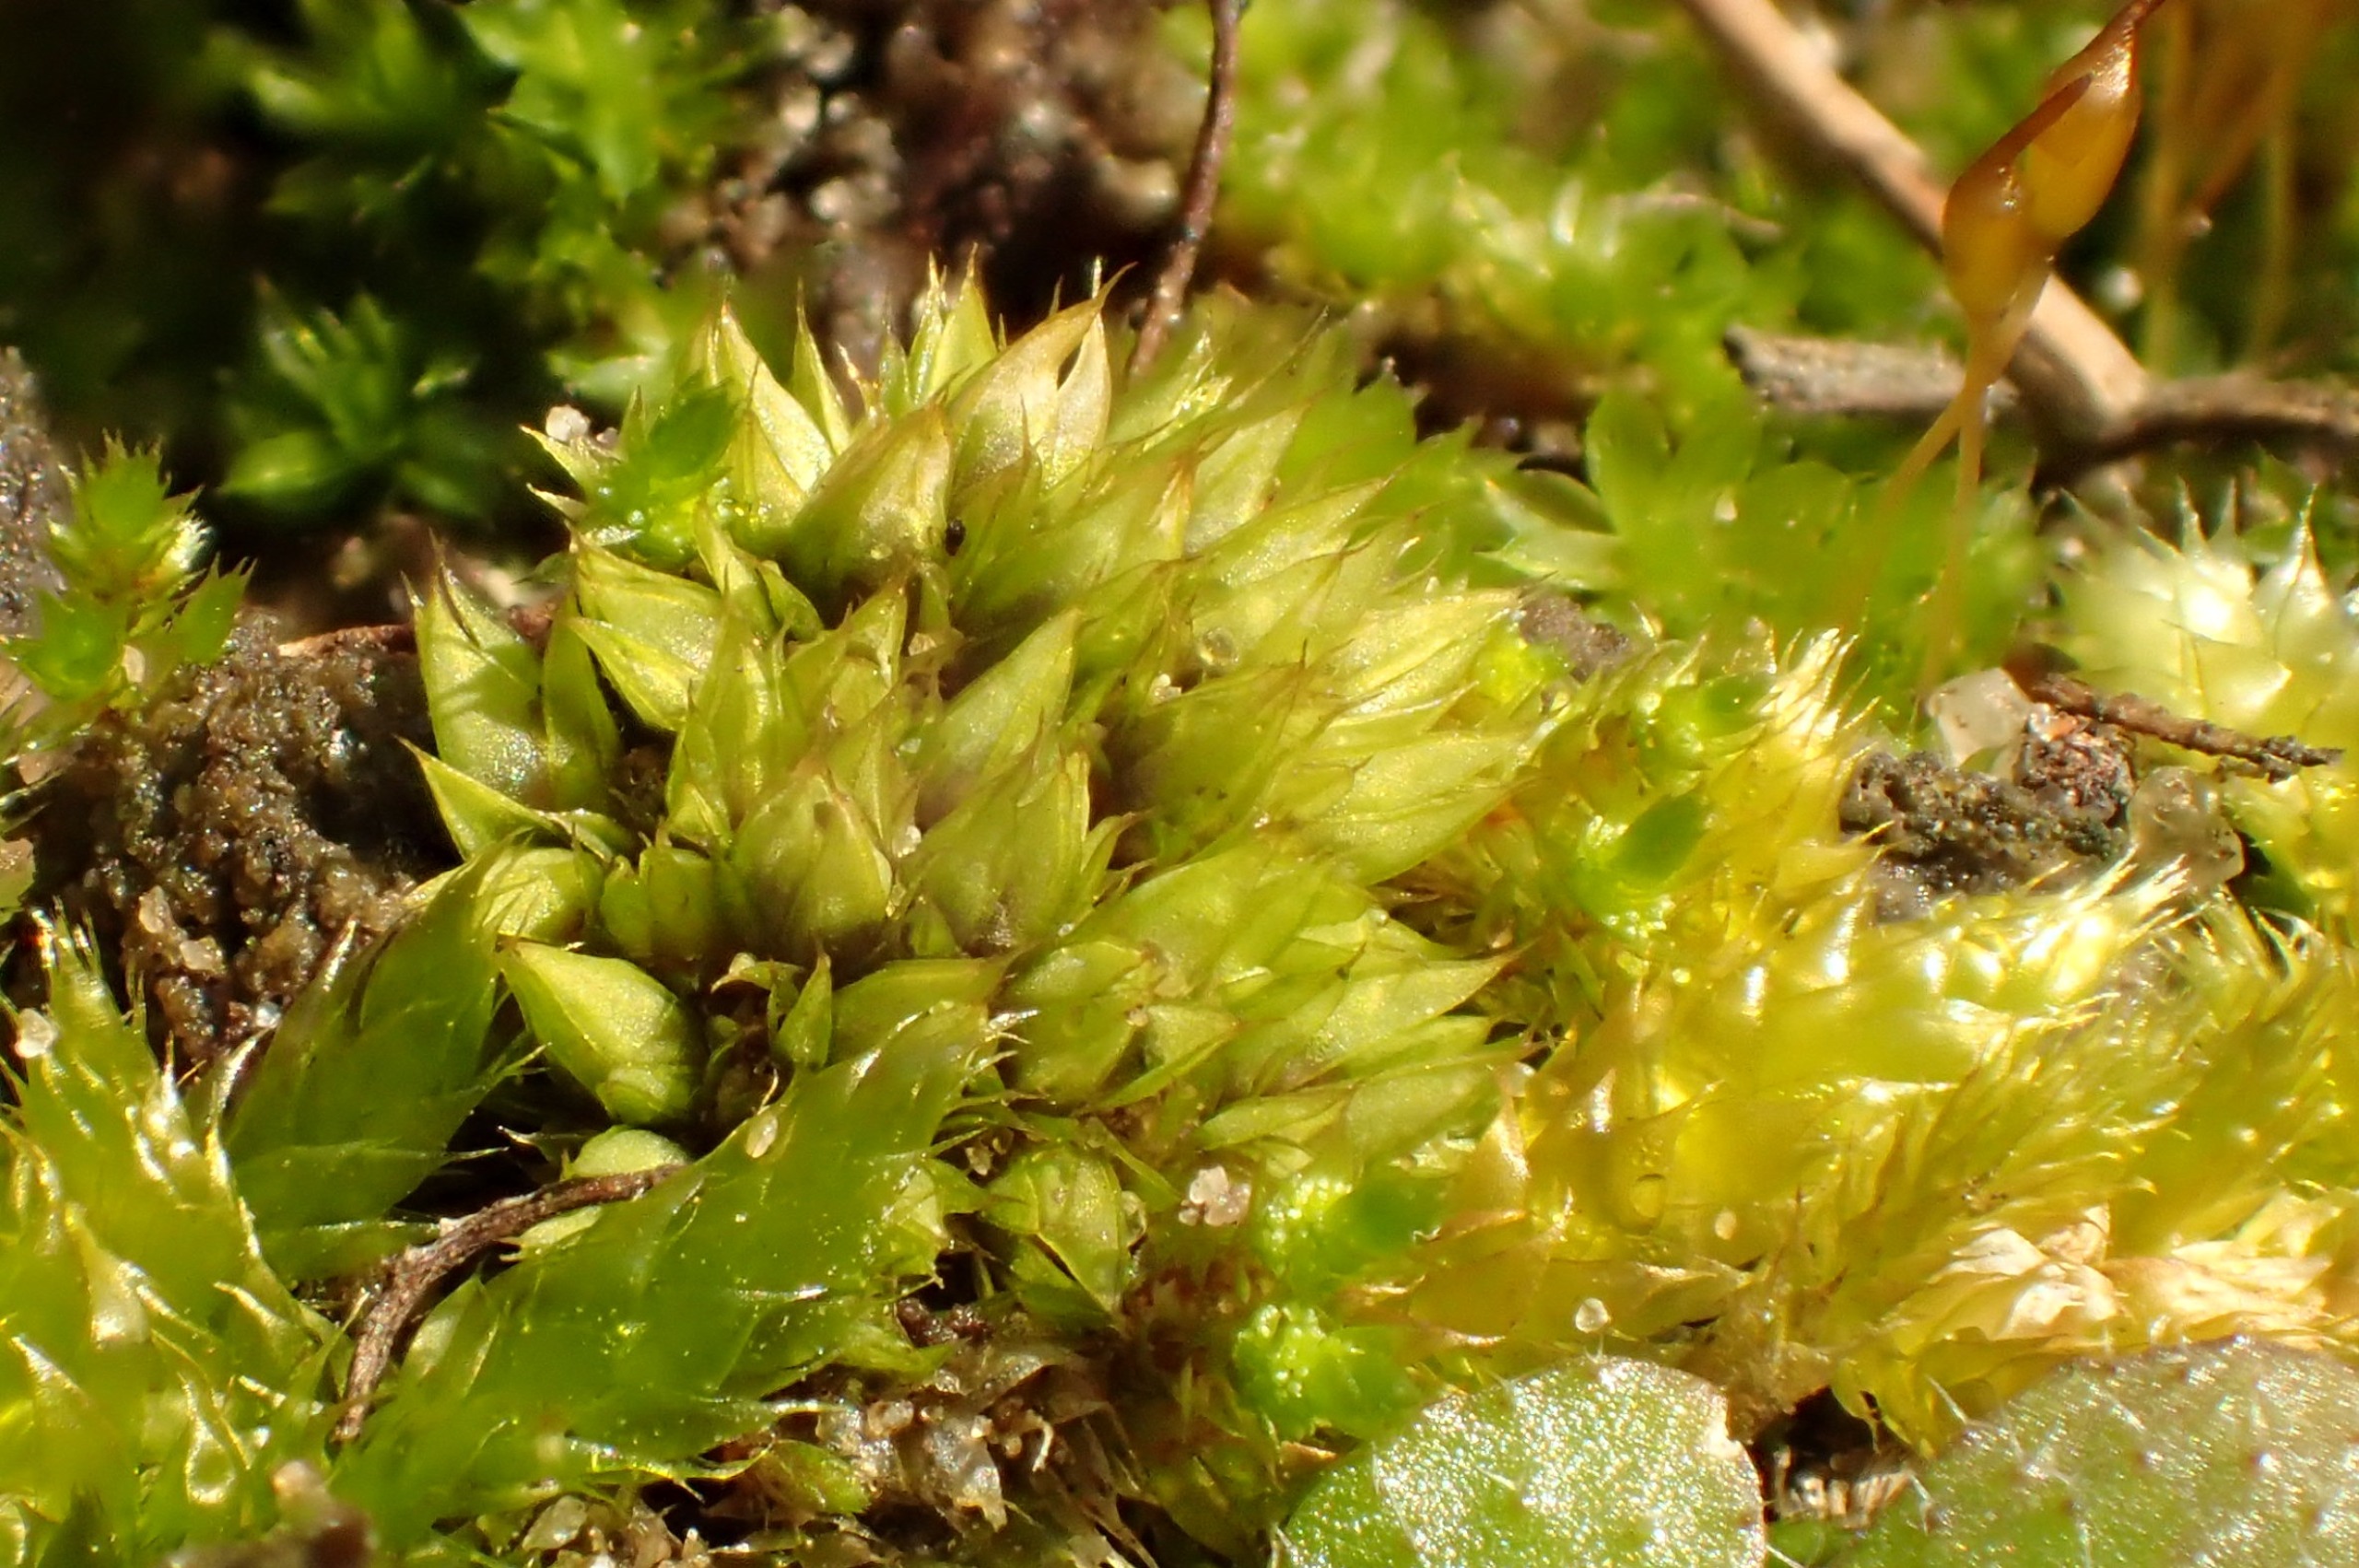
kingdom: Plantae
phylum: Bryophyta
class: Bryopsida
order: Pottiales
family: Pottiaceae
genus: Tortula
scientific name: Tortula acaulon
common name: Tilspidset dværgmos
